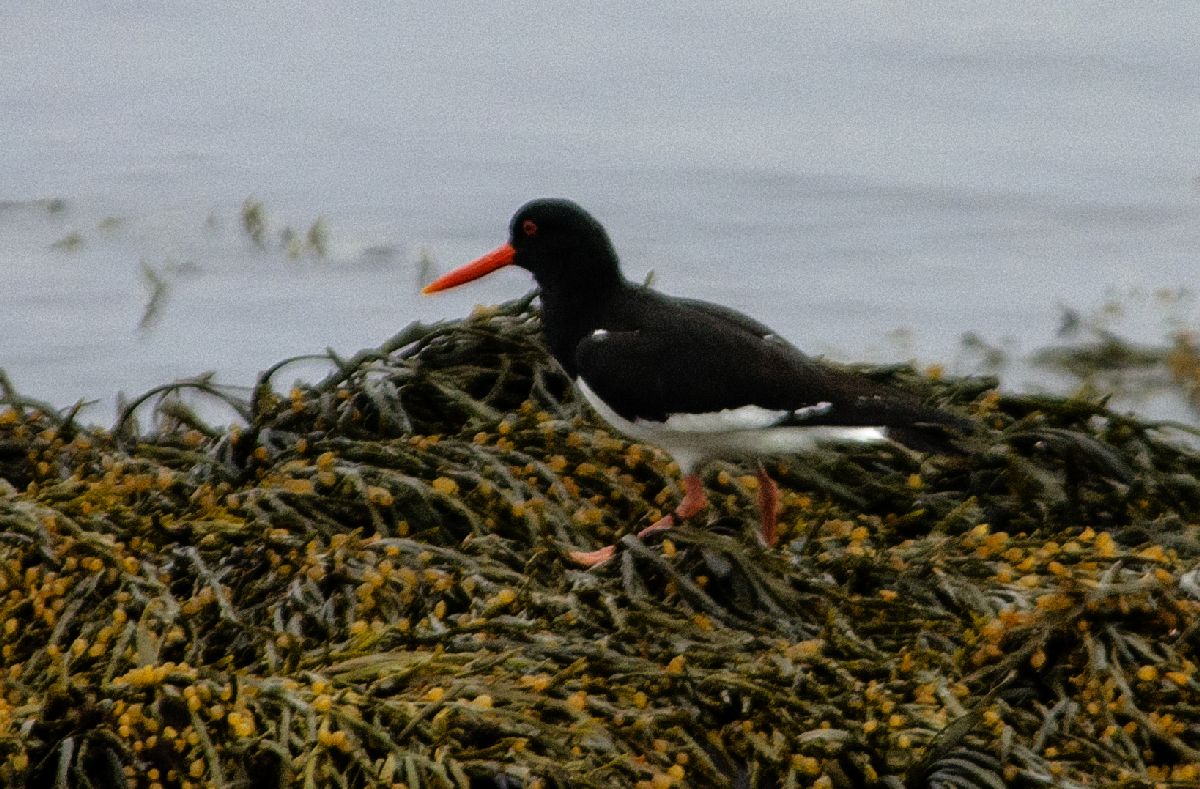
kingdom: Animalia
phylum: Chordata
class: Aves
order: Charadriiformes
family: Haematopodidae
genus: Haematopus
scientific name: Haematopus ostralegus
